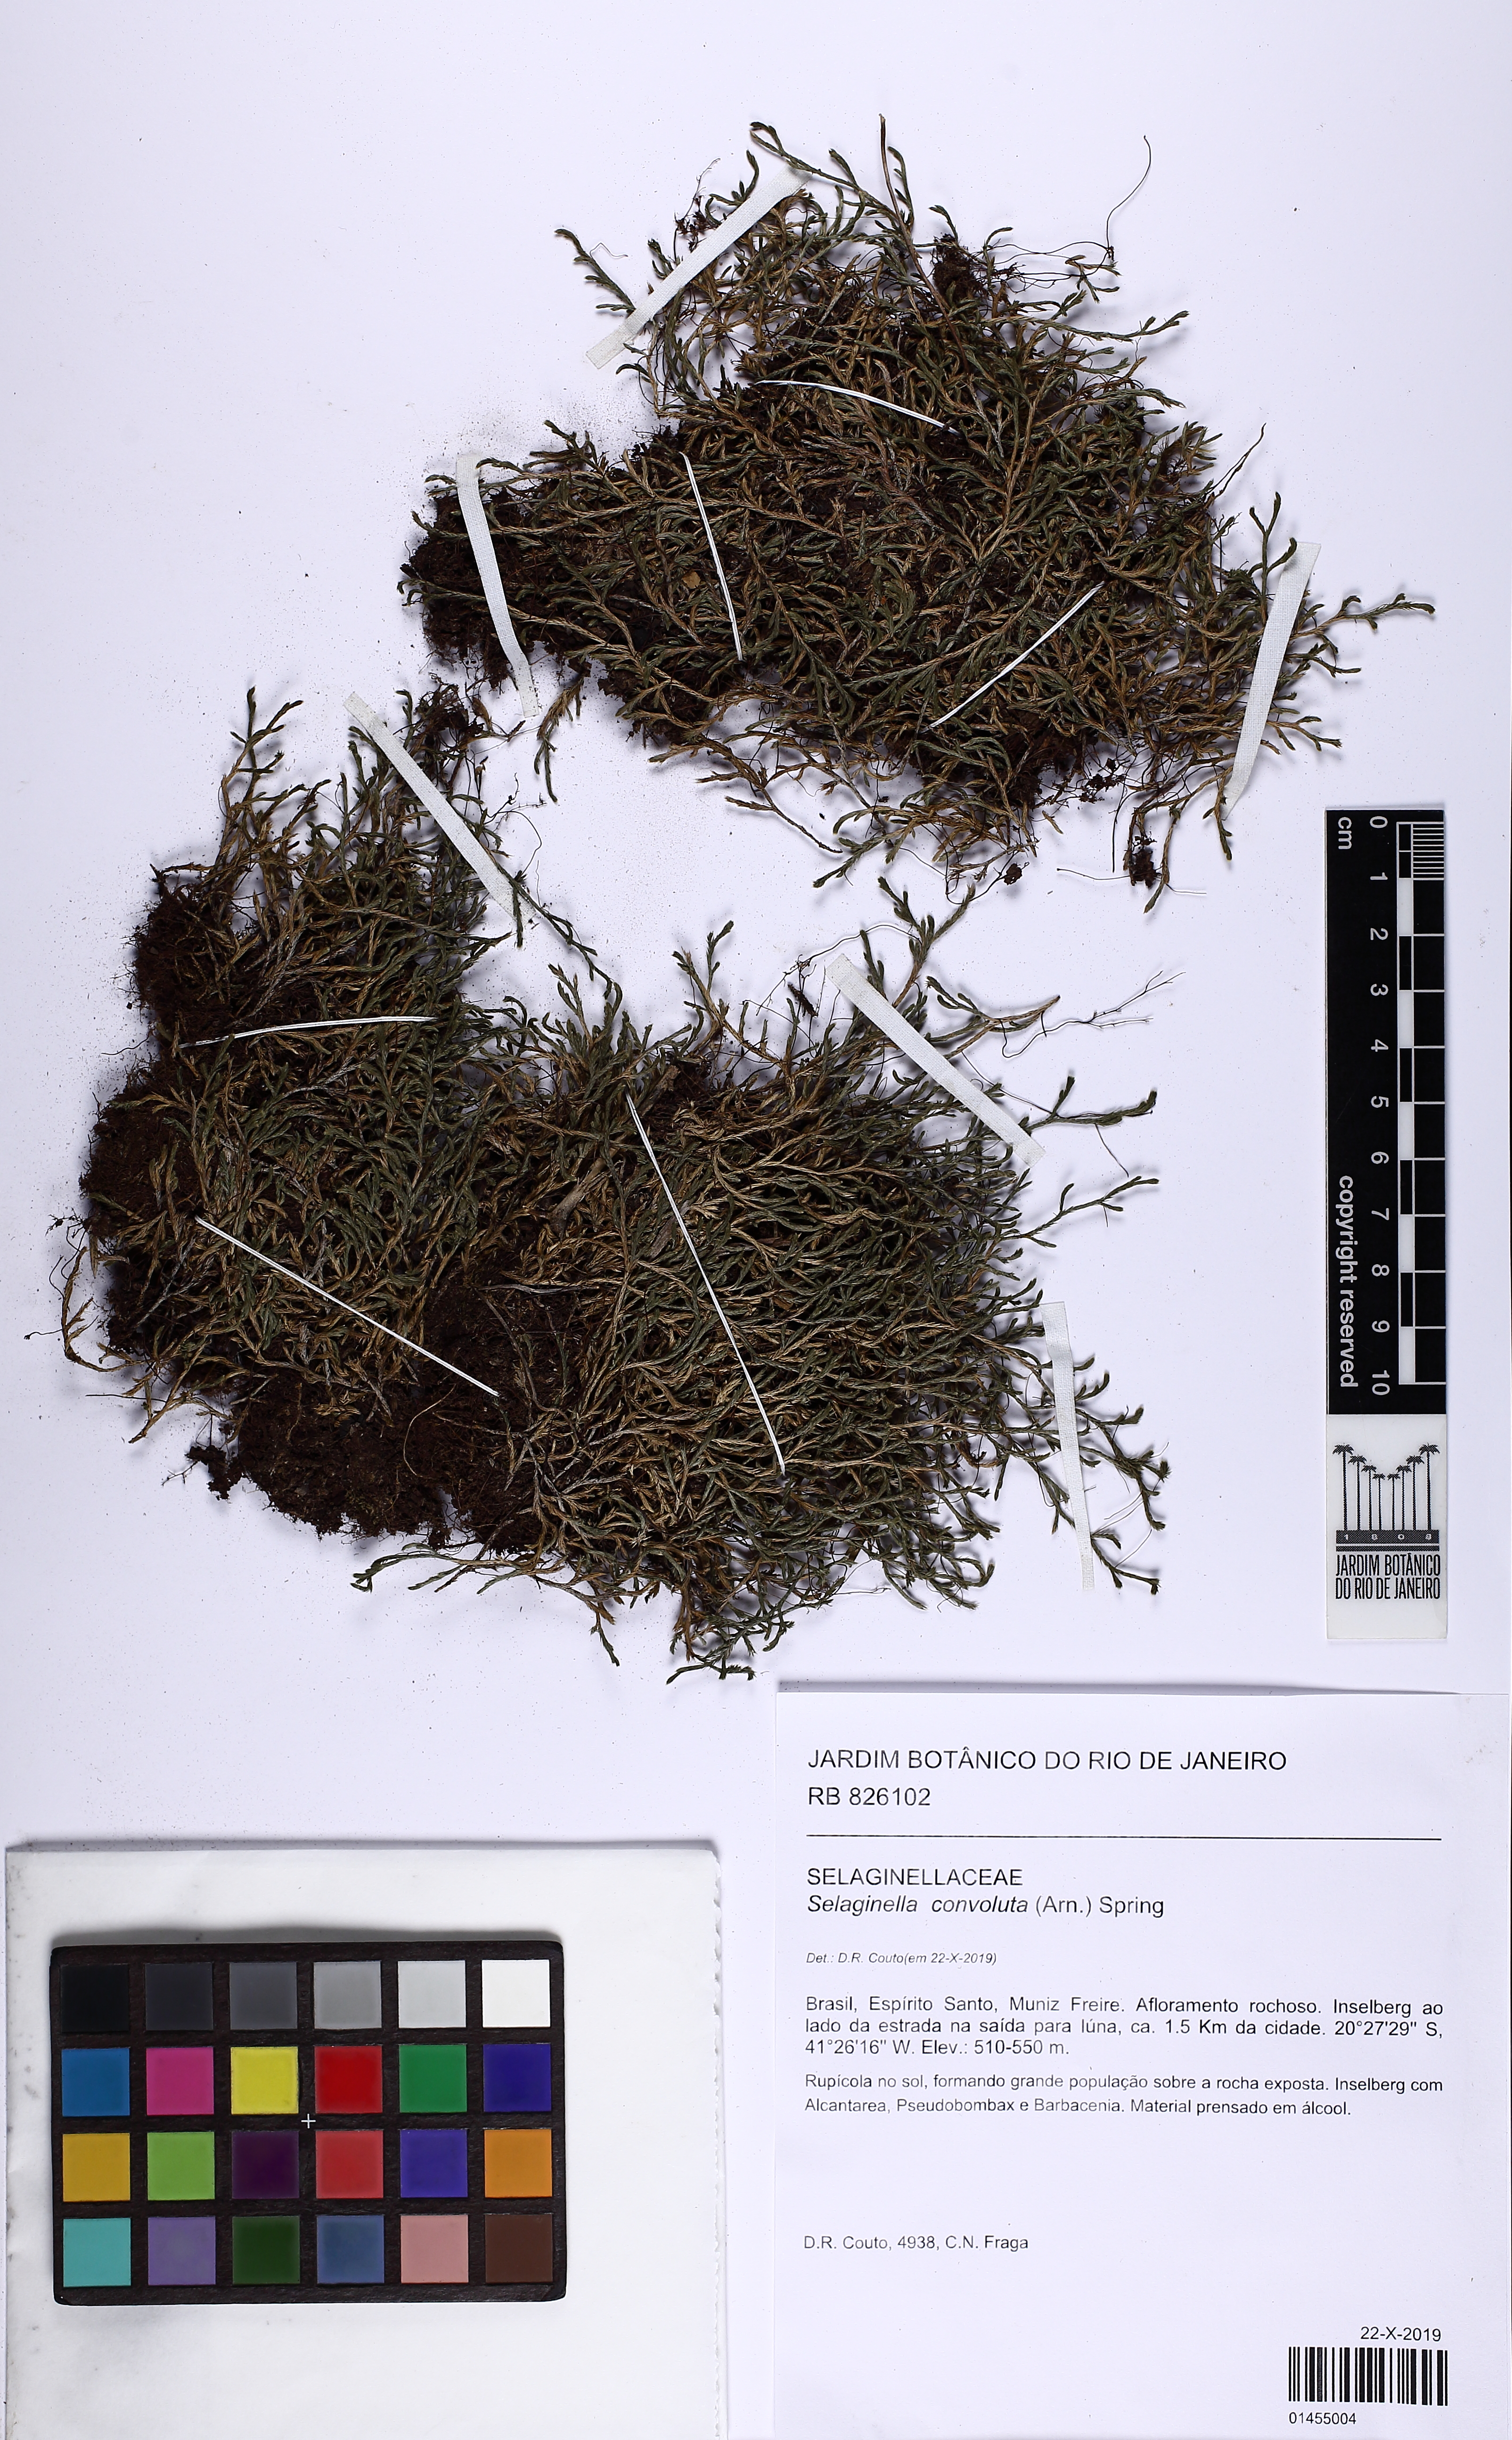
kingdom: Plantae
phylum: Tracheophyta
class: Lycopodiopsida
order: Selaginellales
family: Selaginellaceae
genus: Selaginella
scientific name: Selaginella convoluta
